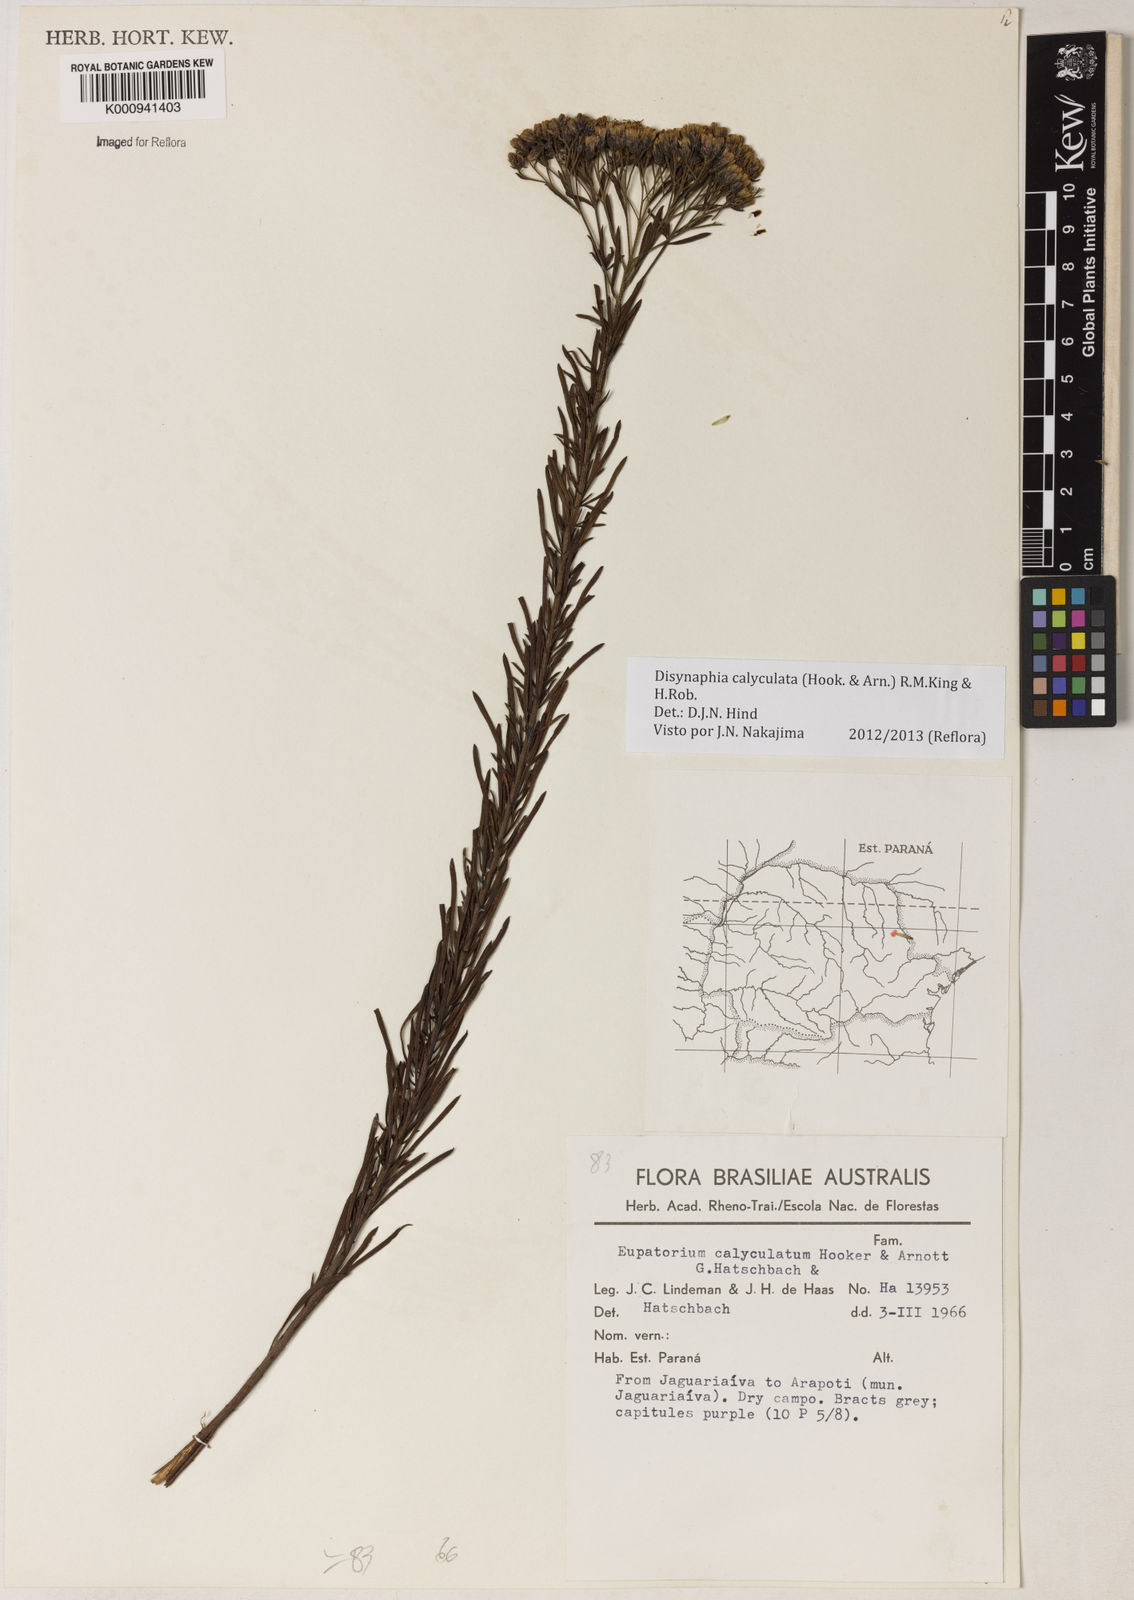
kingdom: Plantae
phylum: Tracheophyta
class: Magnoliopsida
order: Asterales
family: Asteraceae
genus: Disynaphia
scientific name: Disynaphia calyculata
